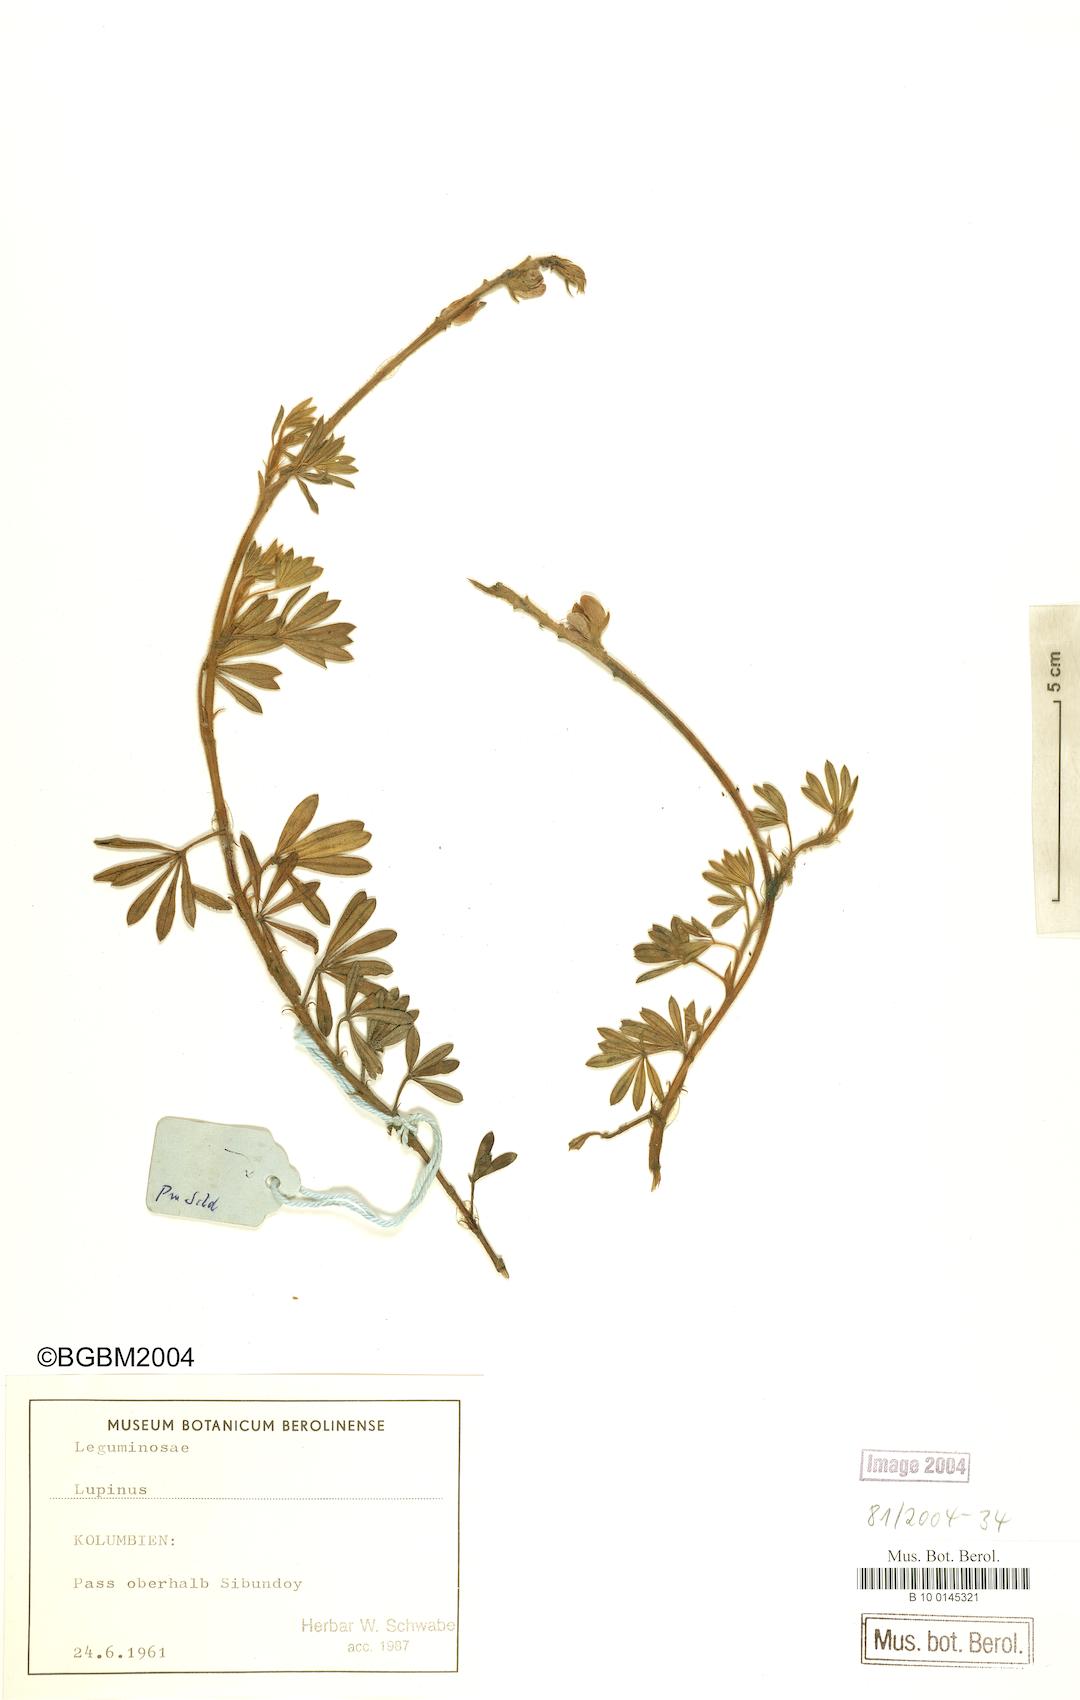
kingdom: Plantae
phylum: Tracheophyta
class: Magnoliopsida
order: Fabales
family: Fabaceae
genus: Lupinus
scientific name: Lupinus
